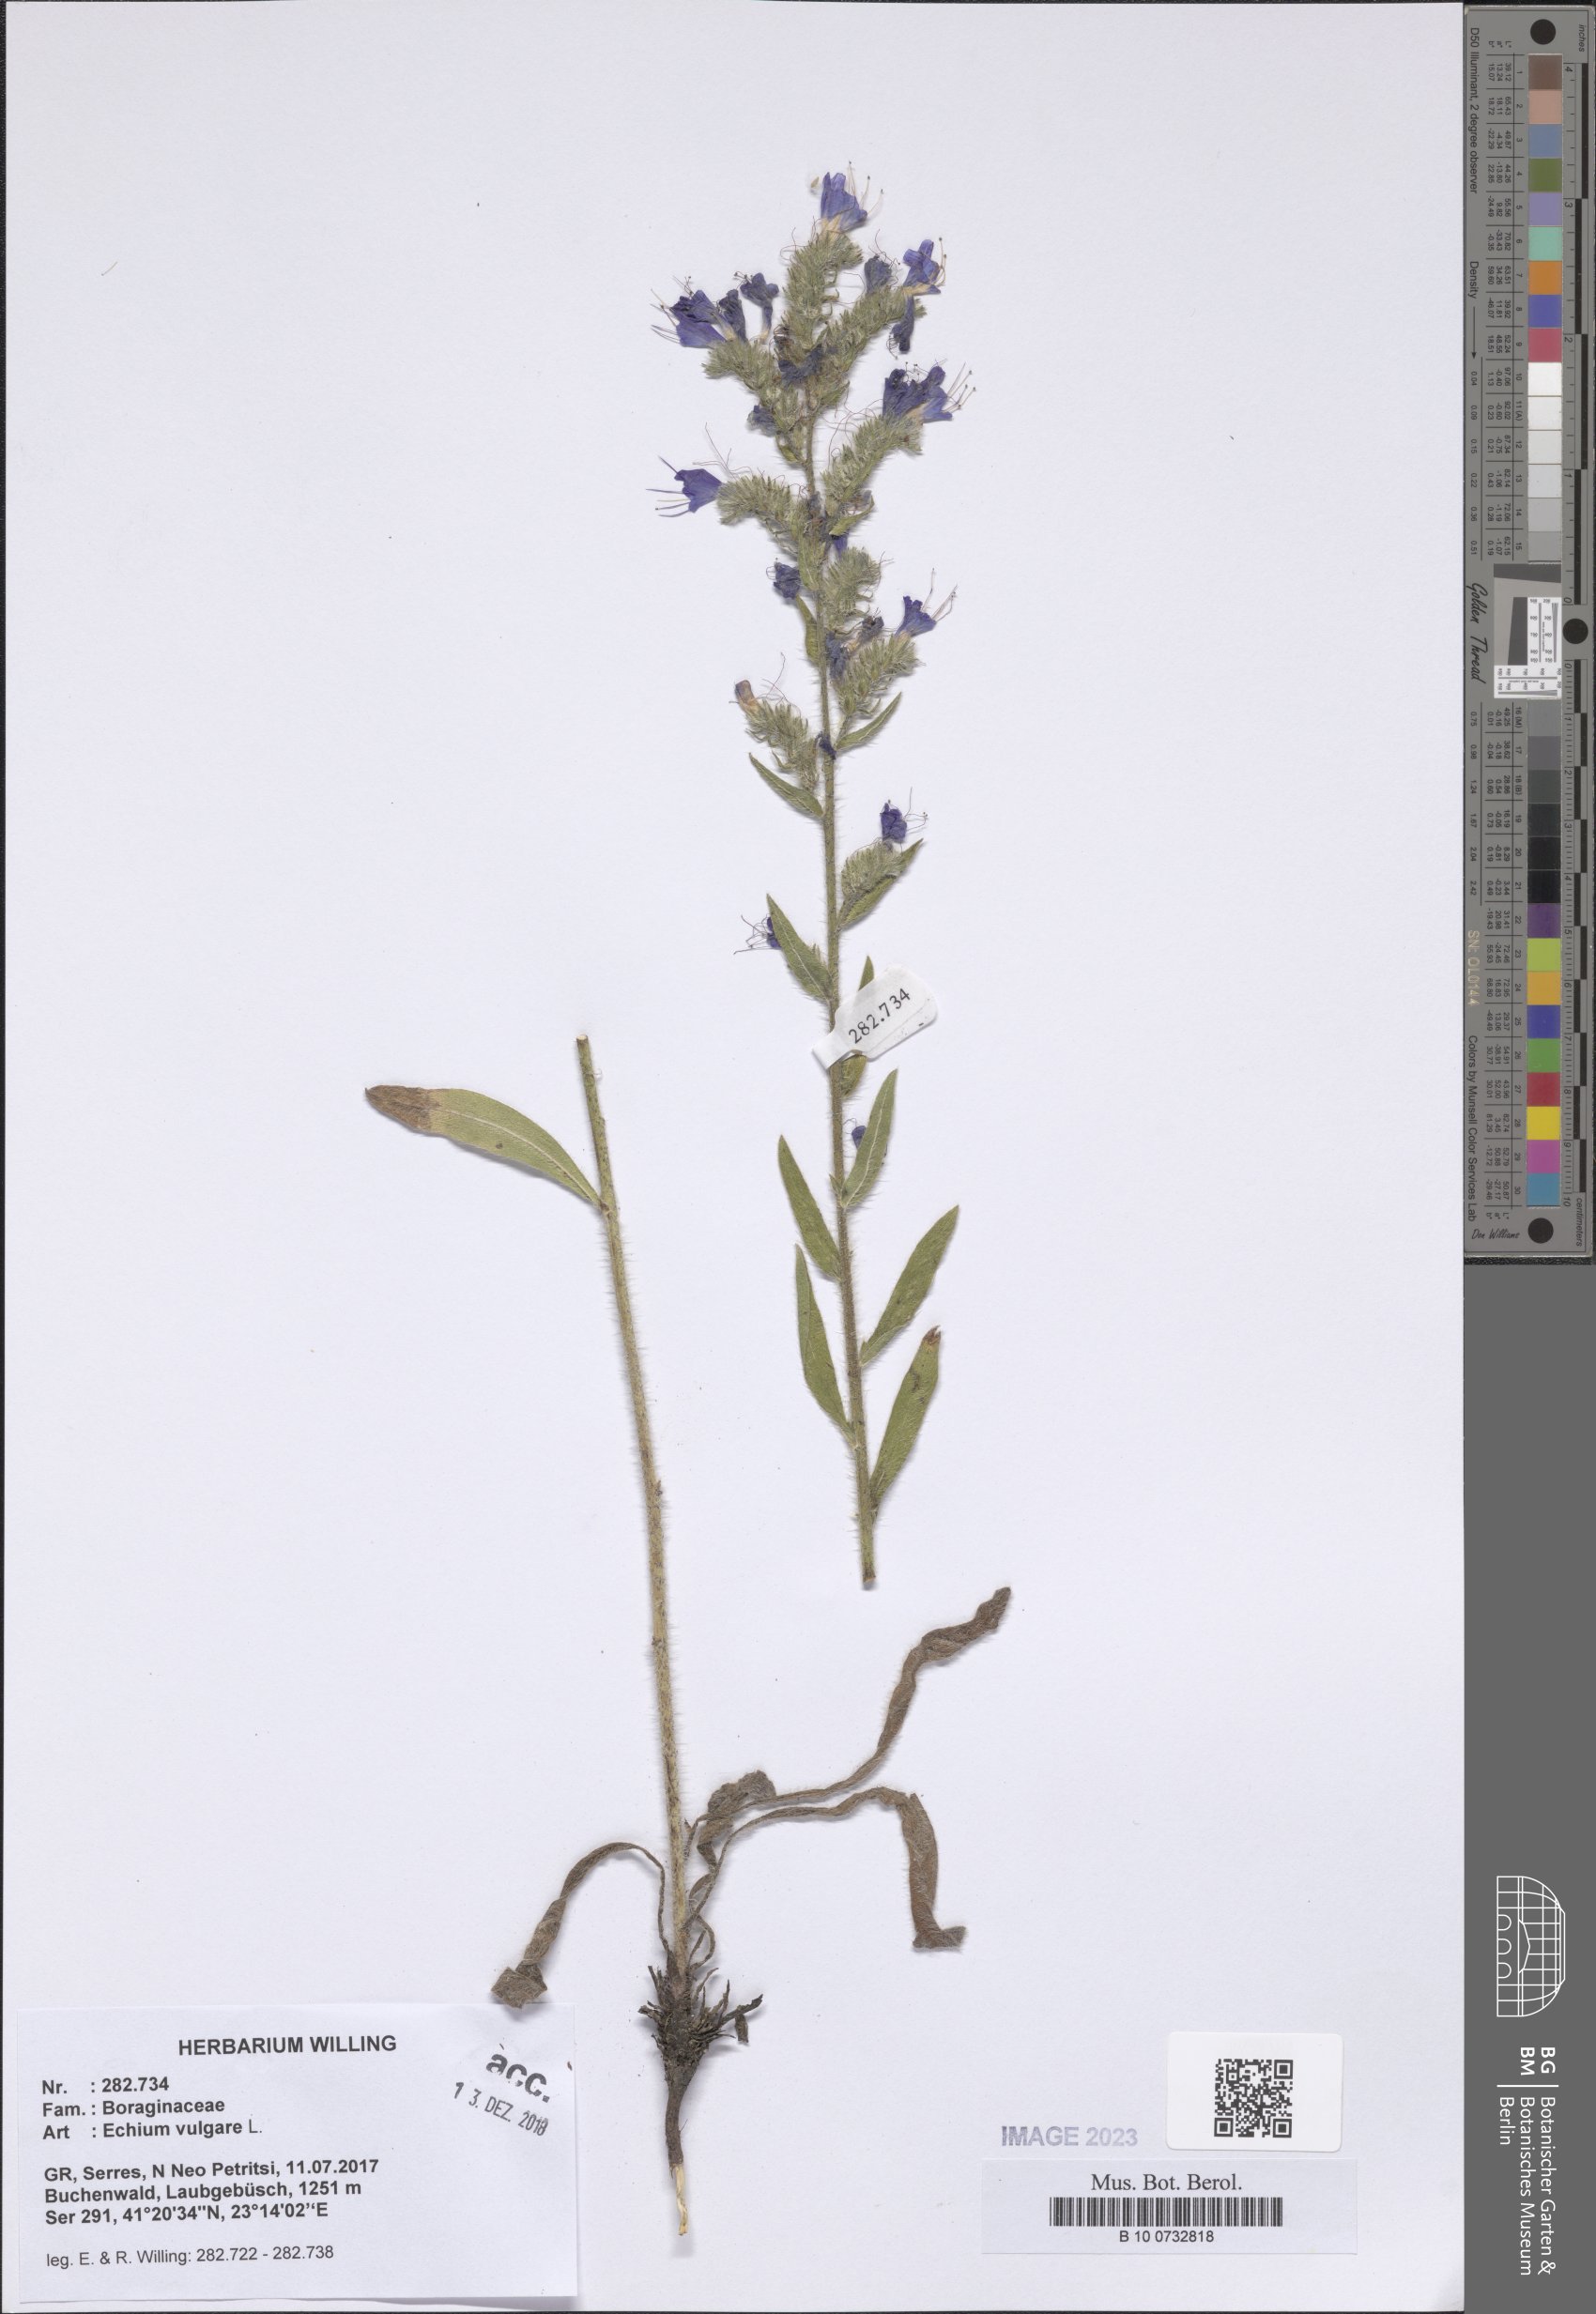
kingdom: Plantae
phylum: Tracheophyta
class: Magnoliopsida
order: Boraginales
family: Boraginaceae
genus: Echium
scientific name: Echium vulgare
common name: Common viper's bugloss
